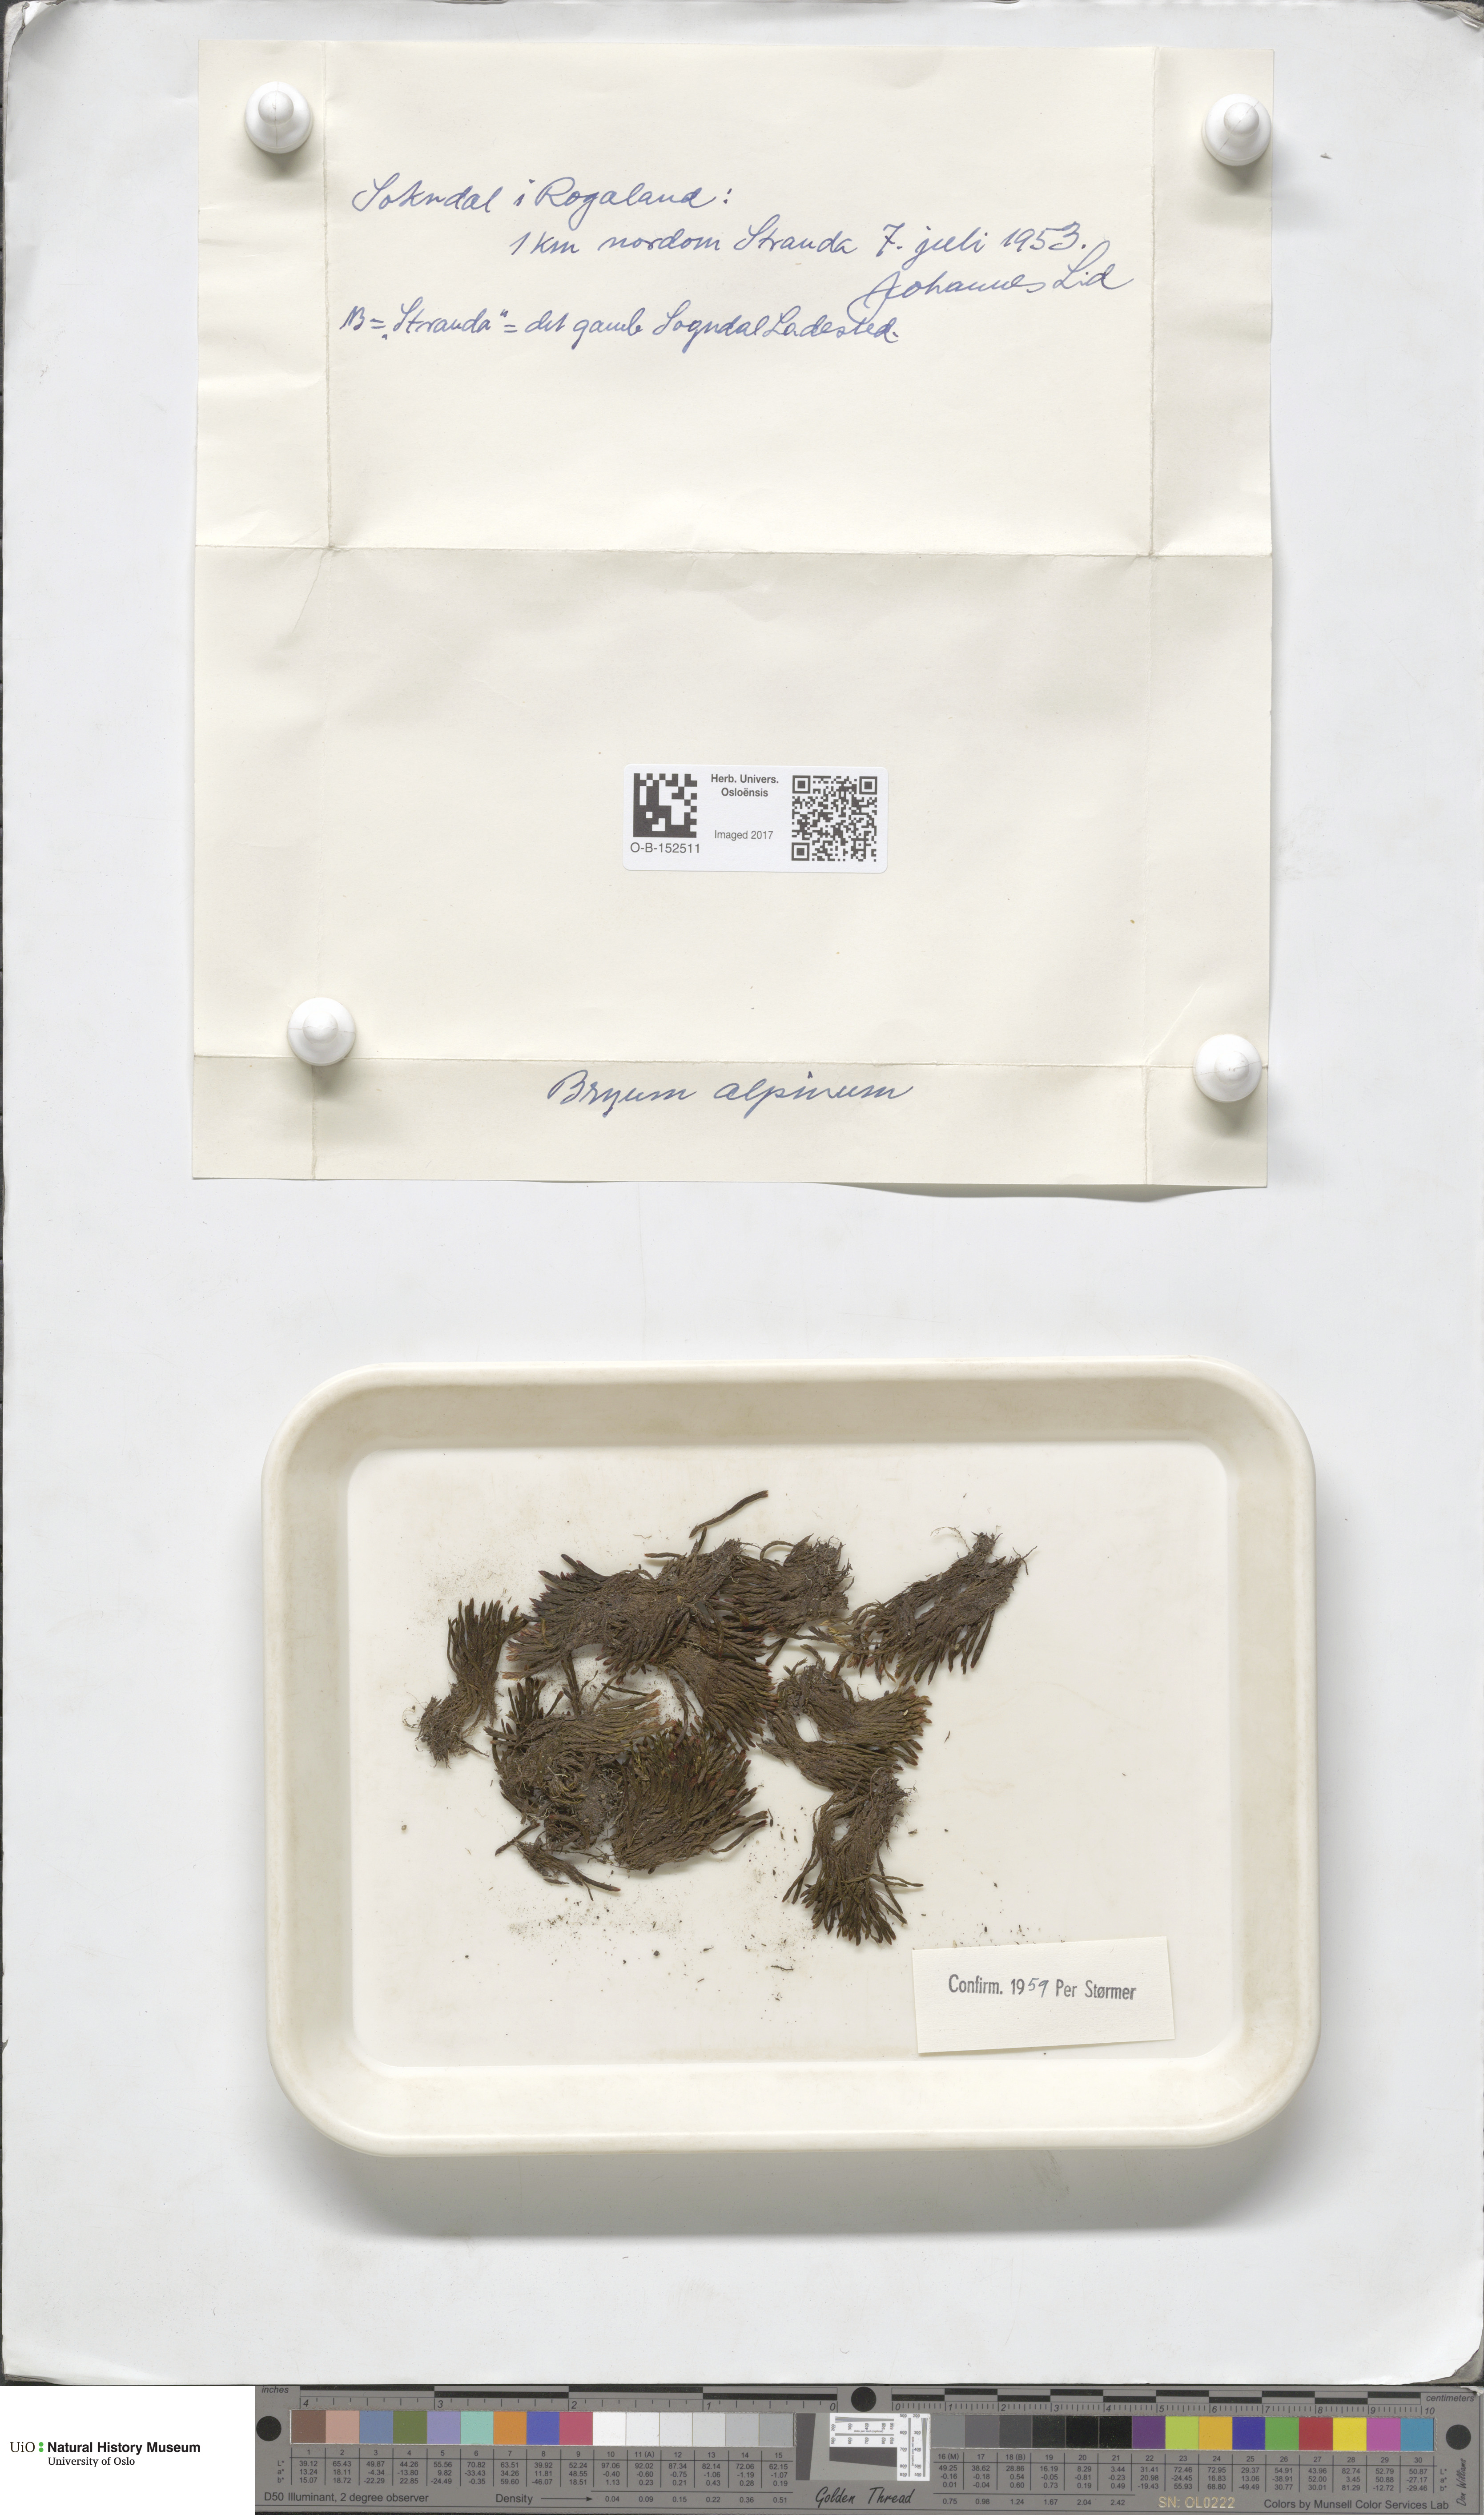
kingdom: Plantae
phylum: Bryophyta
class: Bryopsida
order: Bryales
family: Bryaceae
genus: Imbribryum
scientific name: Imbribryum alpinum
